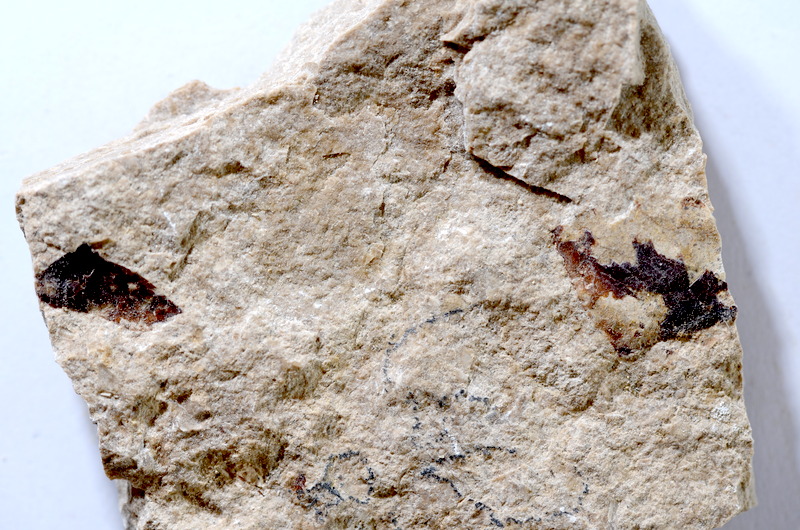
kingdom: Animalia
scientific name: Animalia
